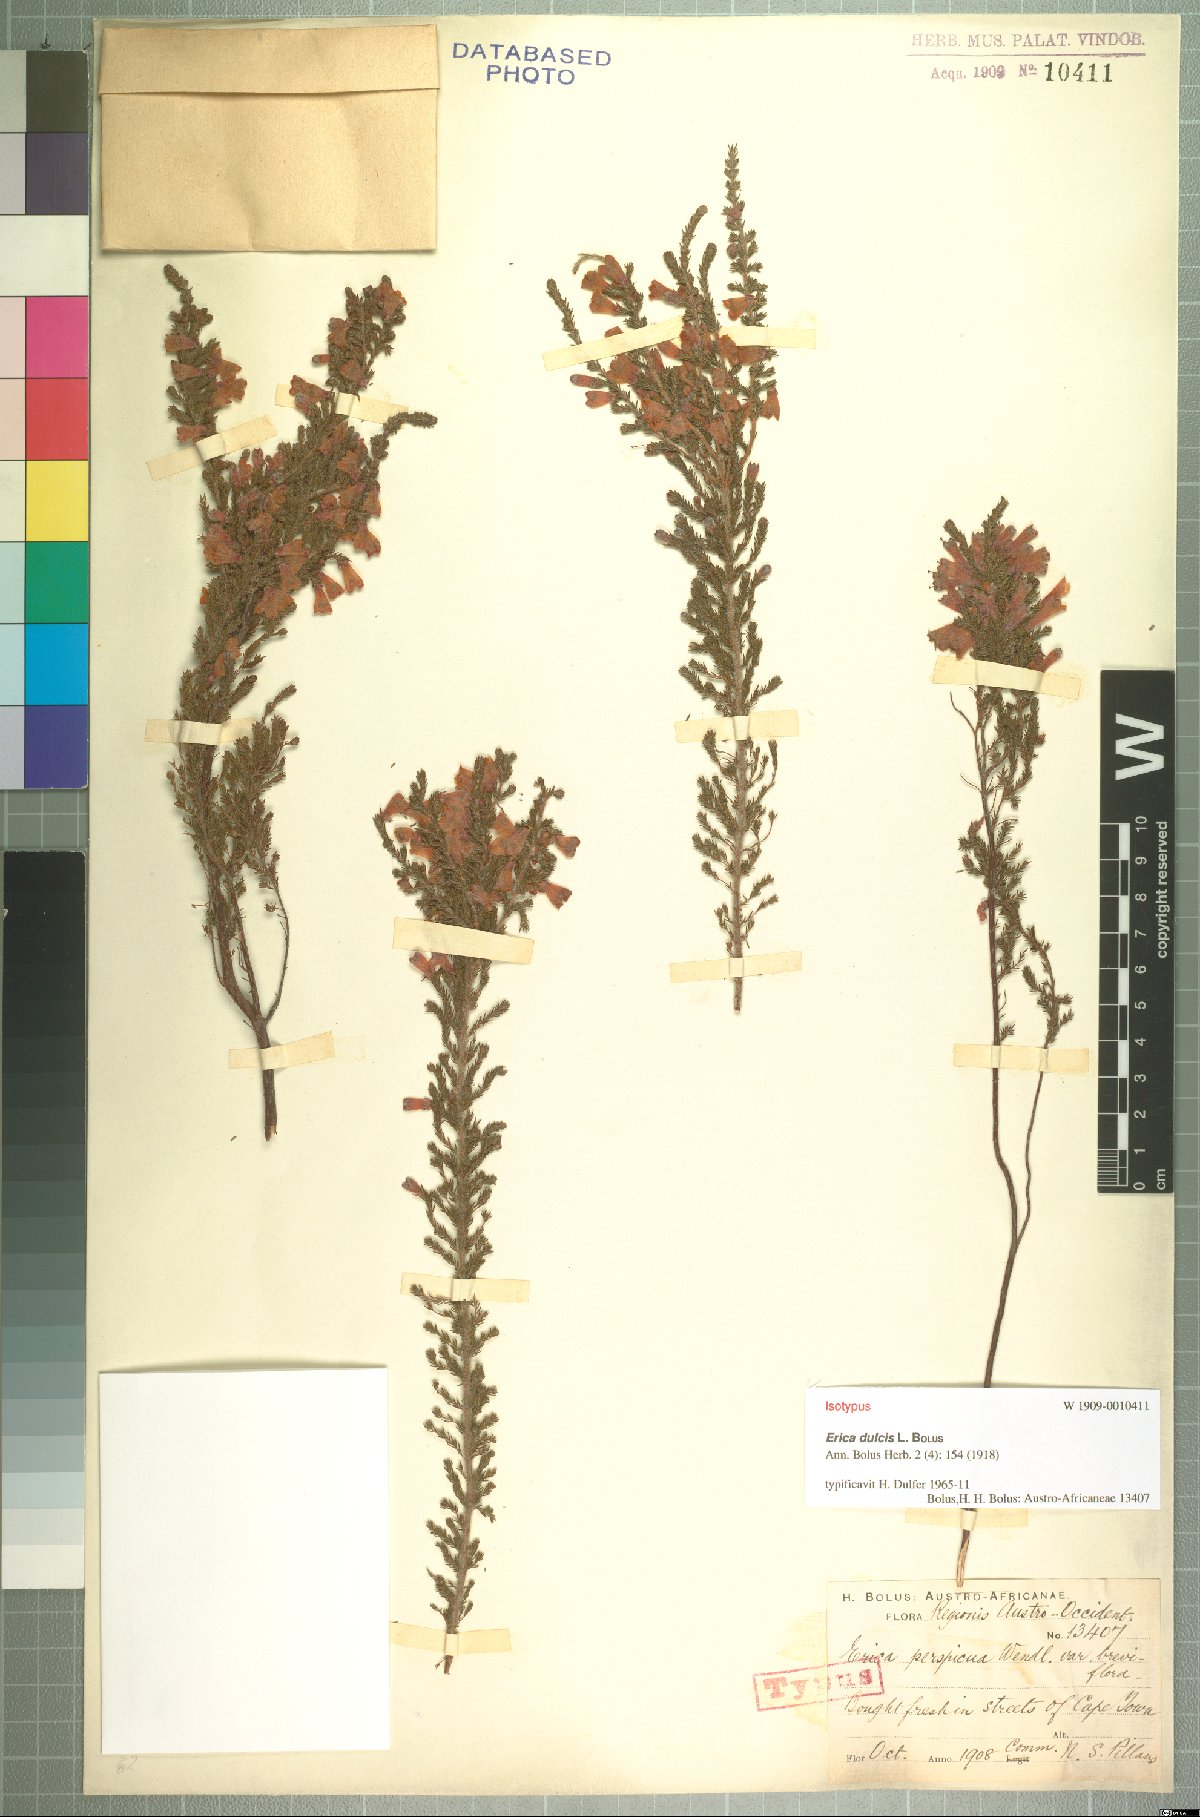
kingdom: Plantae
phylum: Tracheophyta
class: Magnoliopsida
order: Ericales
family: Ericaceae
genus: Erica
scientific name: Erica propendens
